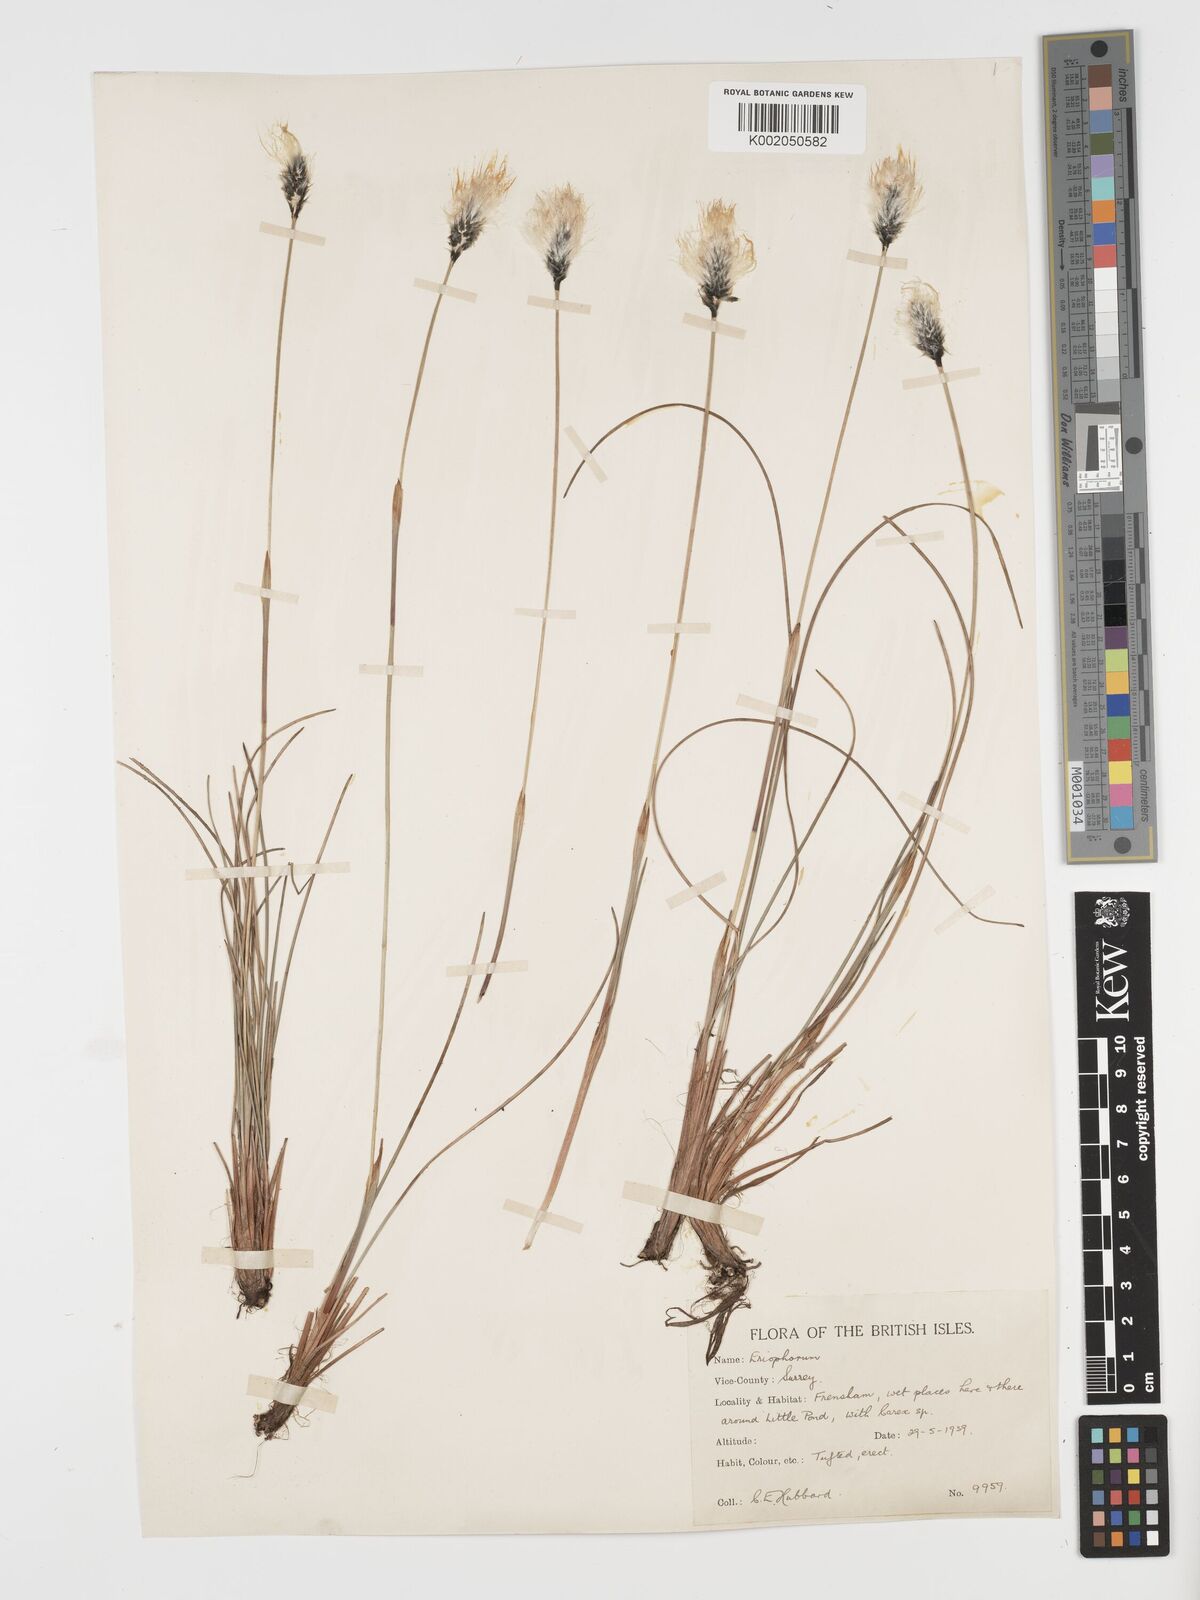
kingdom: Plantae
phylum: Tracheophyta
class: Liliopsida
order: Poales
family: Cyperaceae
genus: Eriophorum
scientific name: Eriophorum vaginatum
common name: Hare's-tail cottongrass
